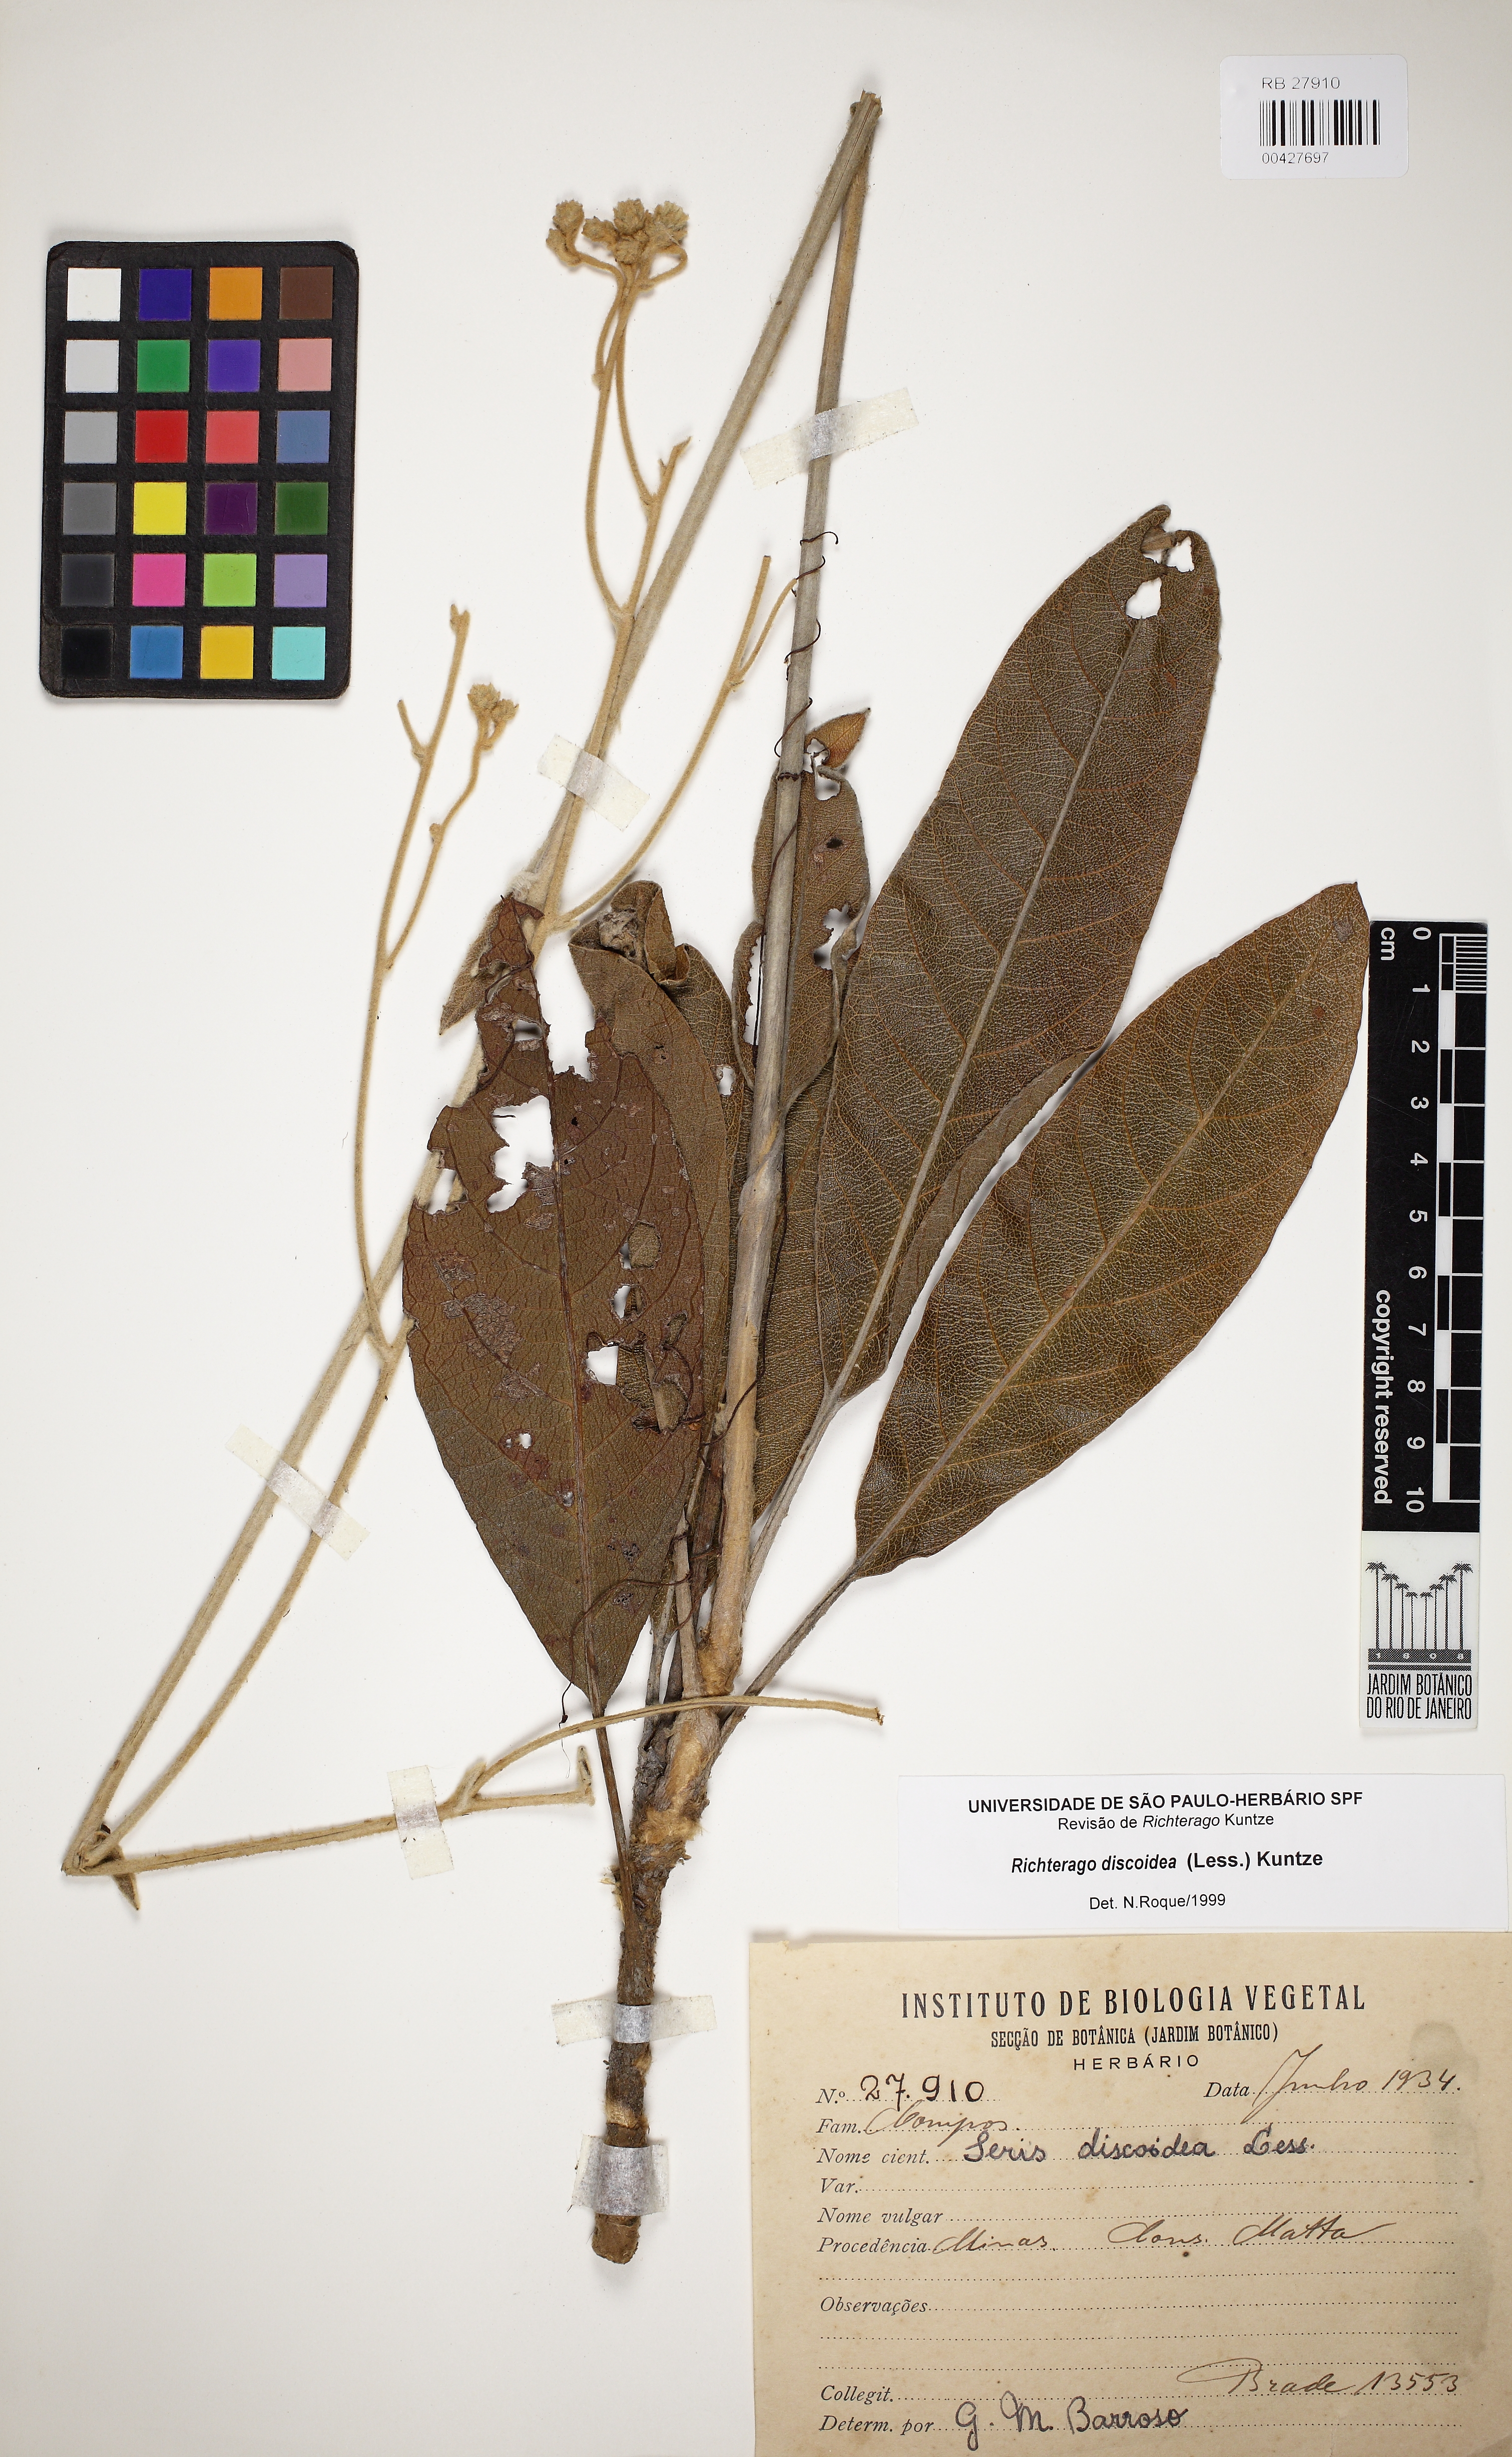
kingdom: Plantae
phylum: Tracheophyta
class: Magnoliopsida
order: Asterales
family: Asteraceae
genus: Richterago
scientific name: Richterago discoidea
